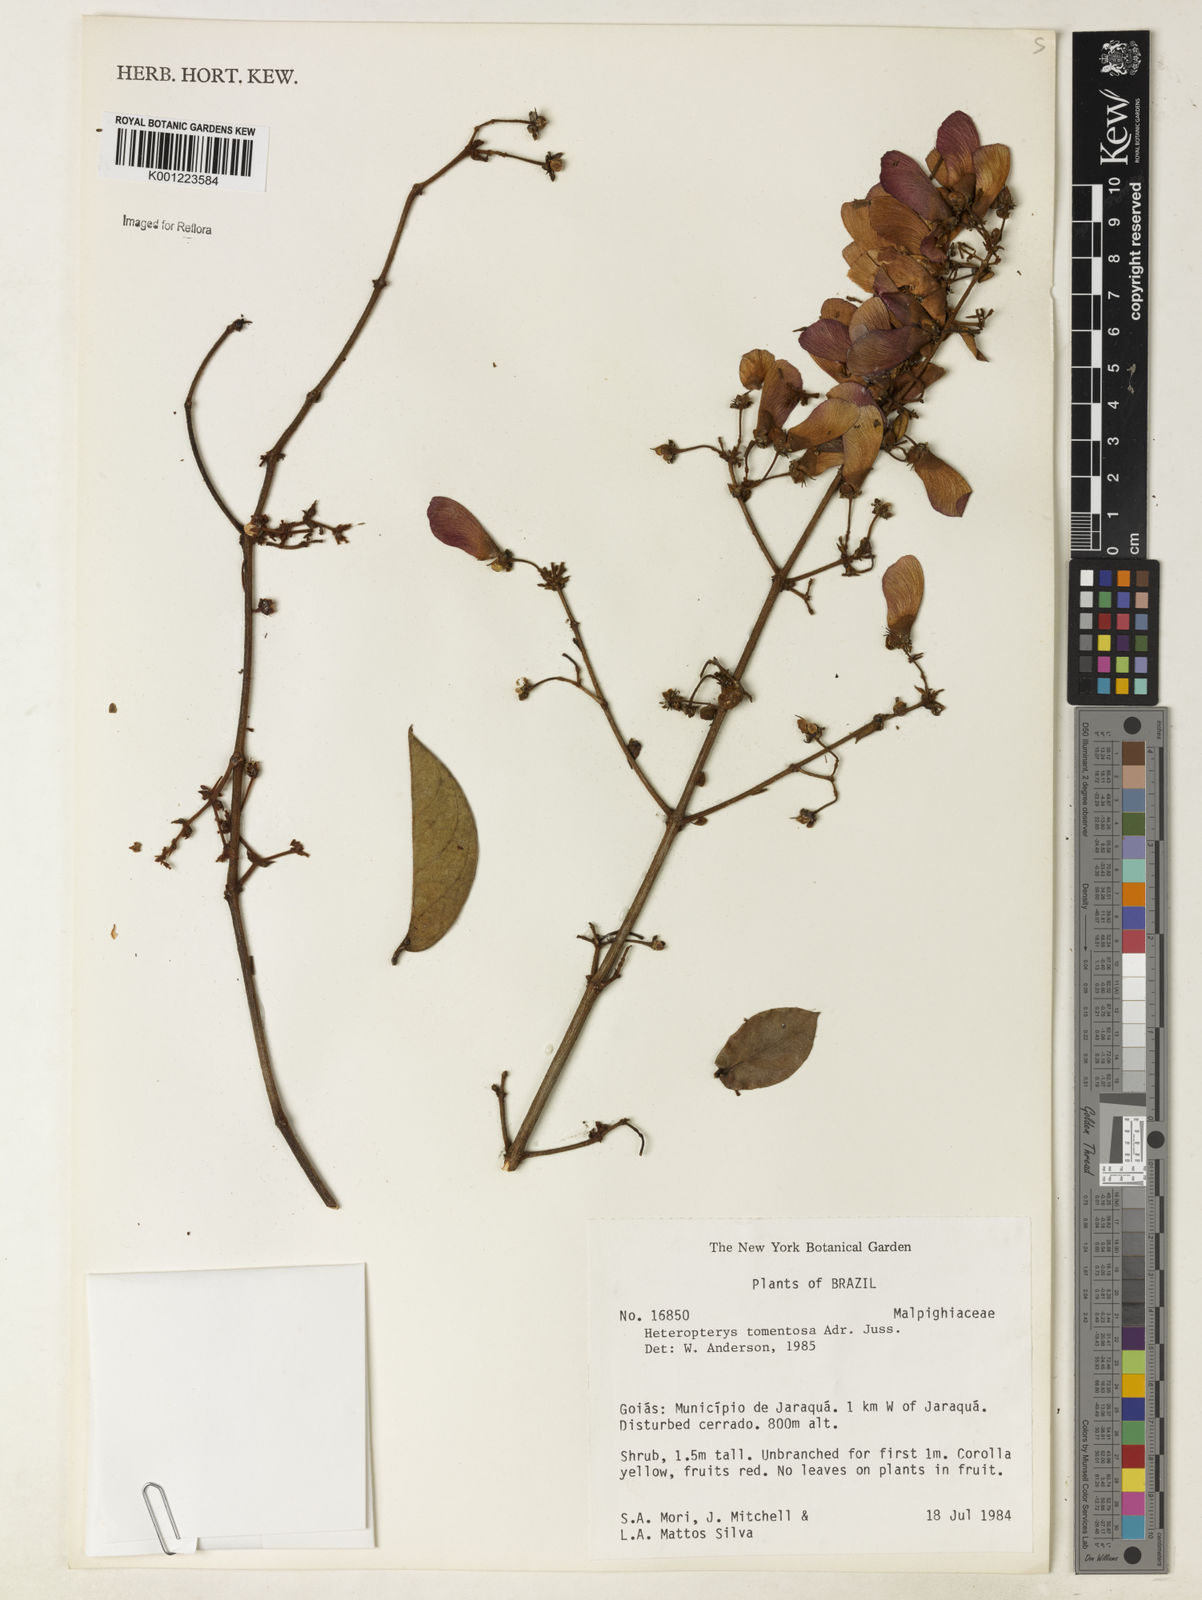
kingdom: Plantae
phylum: Tracheophyta
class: Magnoliopsida
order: Malpighiales
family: Malpighiaceae
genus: Heteropterys
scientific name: Heteropterys tomentosa
